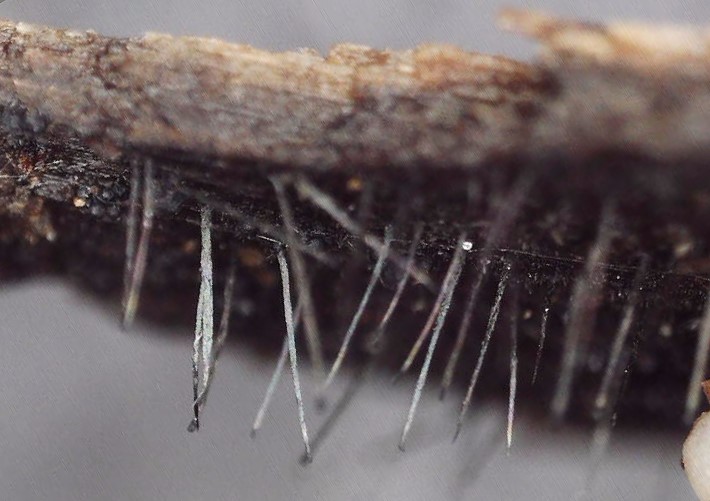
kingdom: Fungi
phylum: Ascomycota
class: Eurotiomycetes
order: Chaetothyriales
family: Herpotrichiellaceae
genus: Exophiala
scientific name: Exophiala calicioides
